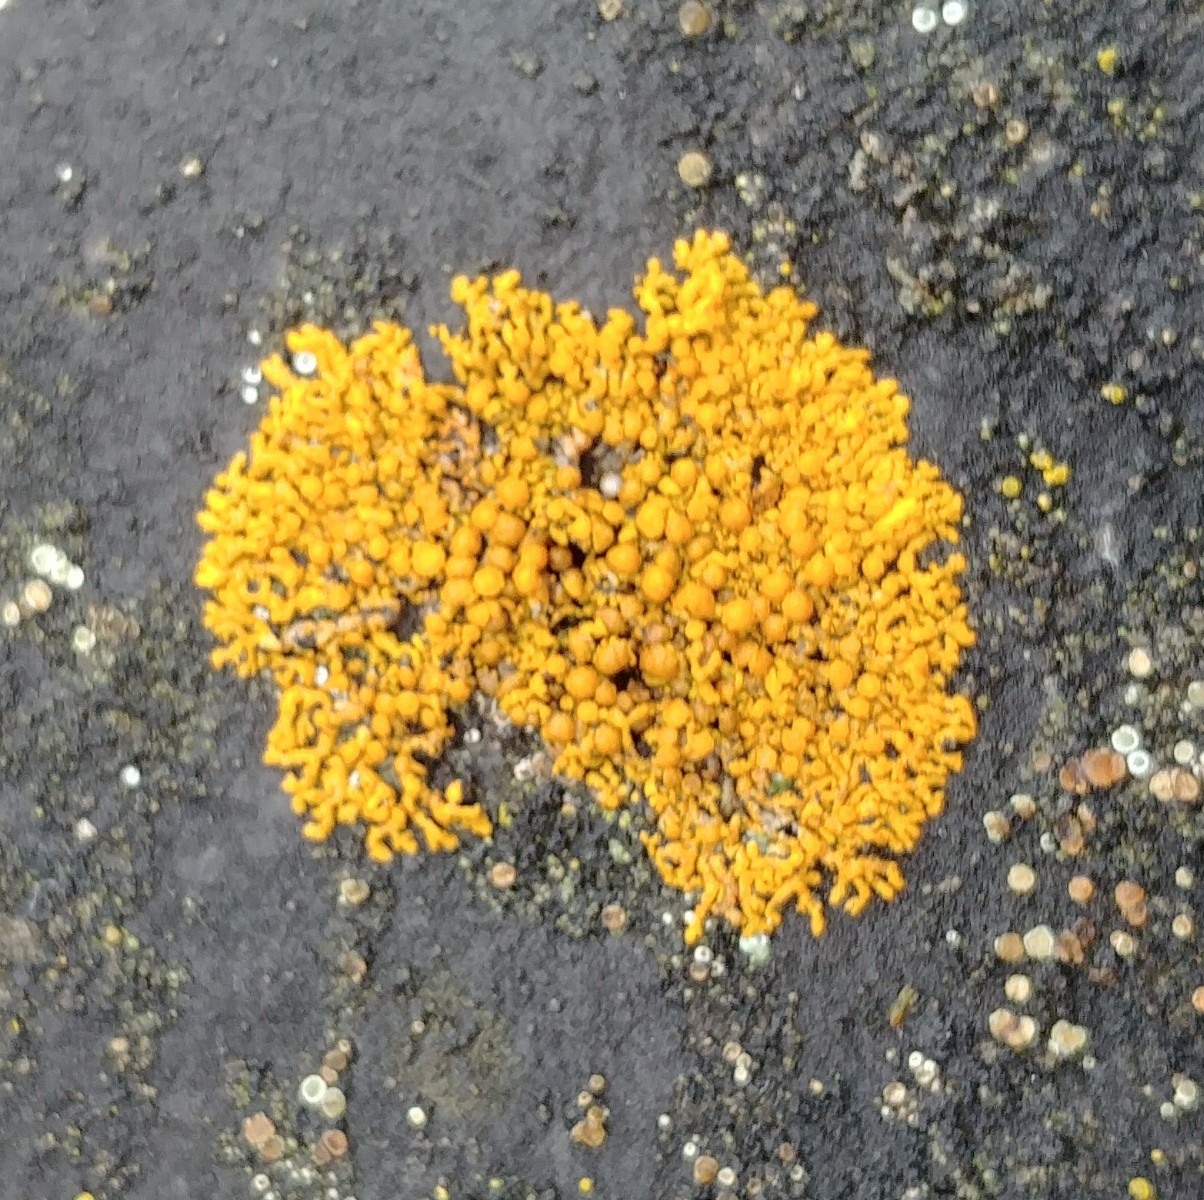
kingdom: Fungi
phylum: Ascomycota
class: Lecanoromycetes
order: Teloschistales
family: Teloschistaceae
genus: Xanthoria
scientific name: Xanthoria elegans
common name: fjeld-væggelav
